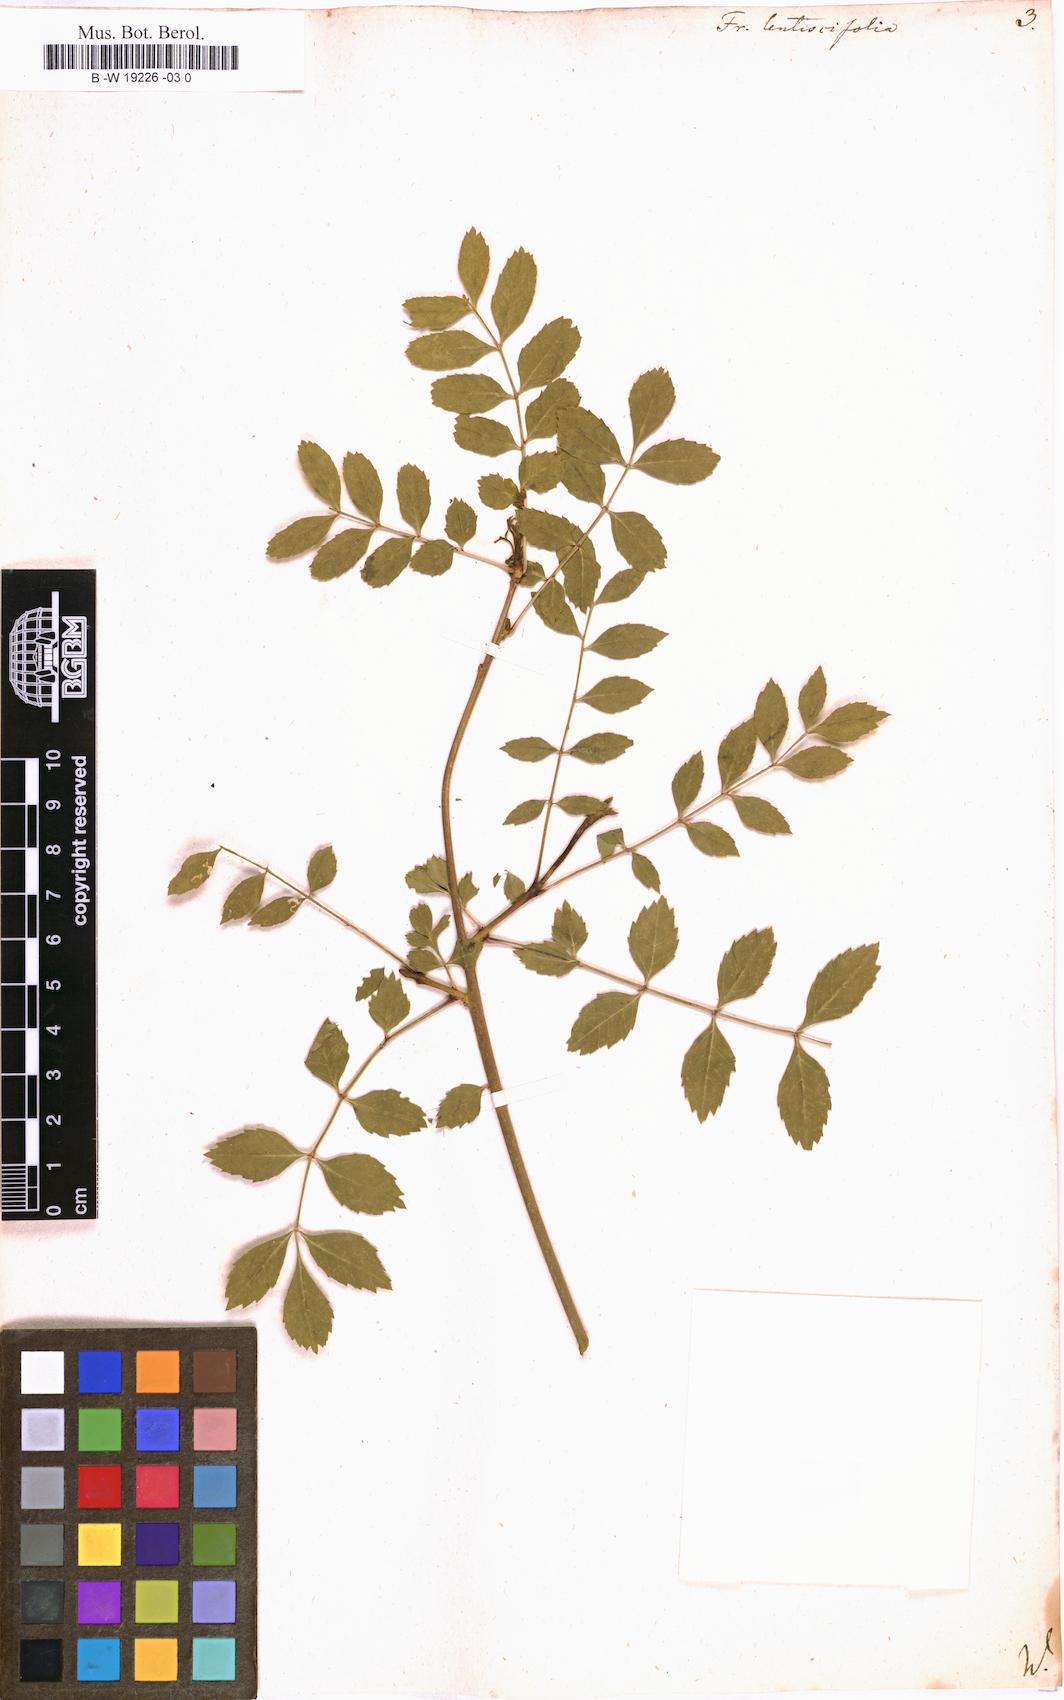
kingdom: Plantae
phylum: Tracheophyta
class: Magnoliopsida
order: Lamiales
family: Oleaceae
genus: Fraxinus
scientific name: Fraxinus angustifolia
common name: Narrow-leafed ash
